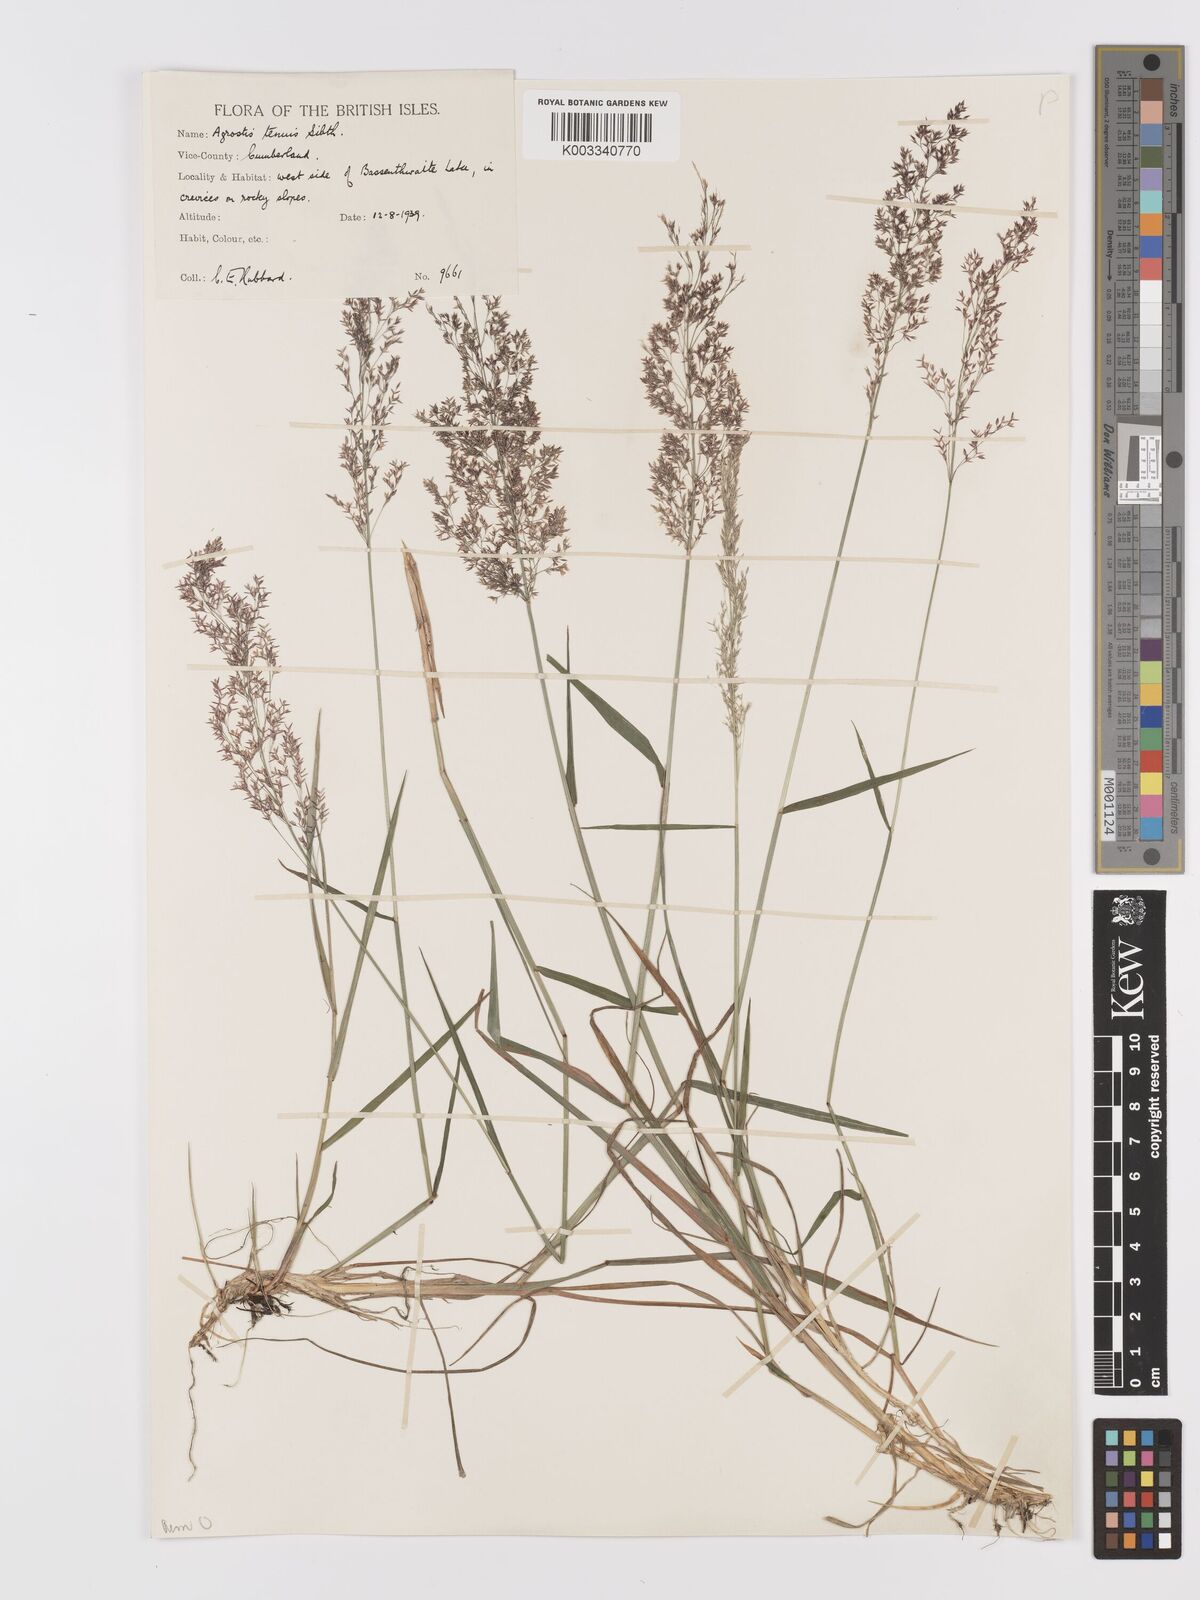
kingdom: Plantae
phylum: Tracheophyta
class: Liliopsida
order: Poales
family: Poaceae
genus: Agrostis
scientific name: Agrostis capillaris
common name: Colonial bentgrass
